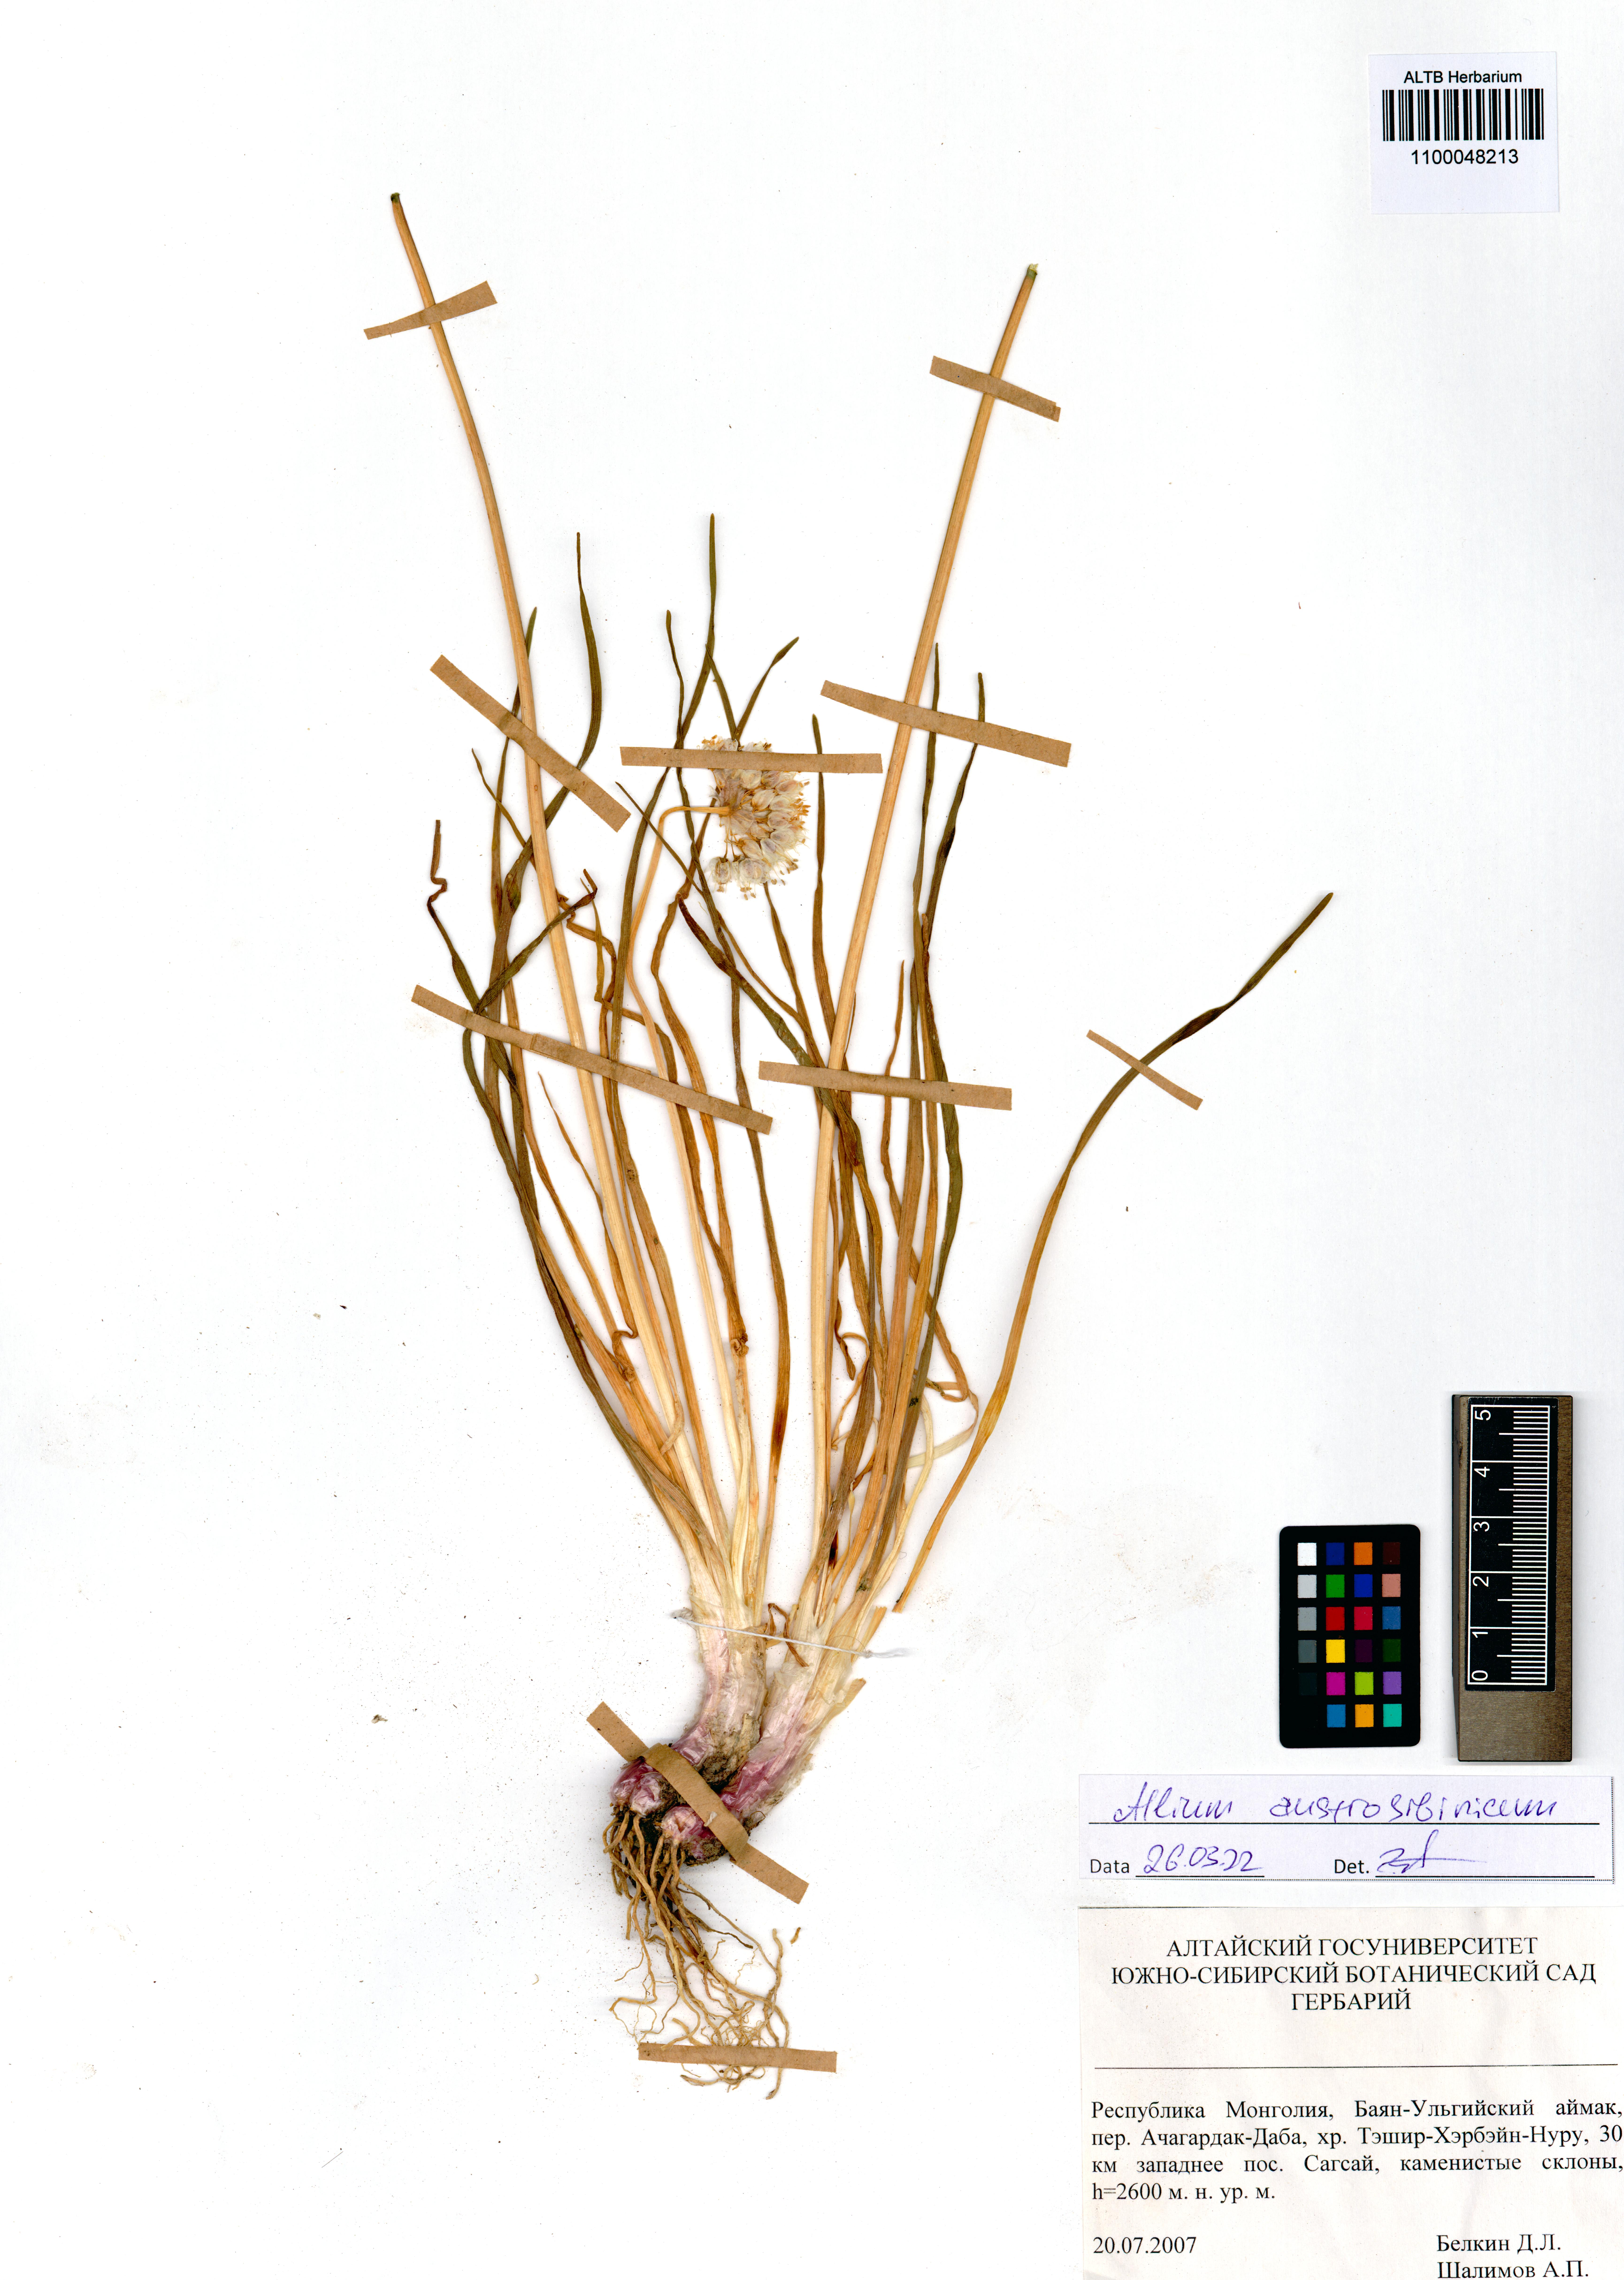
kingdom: Plantae
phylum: Tracheophyta
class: Liliopsida
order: Asparagales
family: Amaryllidaceae
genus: Allium
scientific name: Allium austrosibiricum
